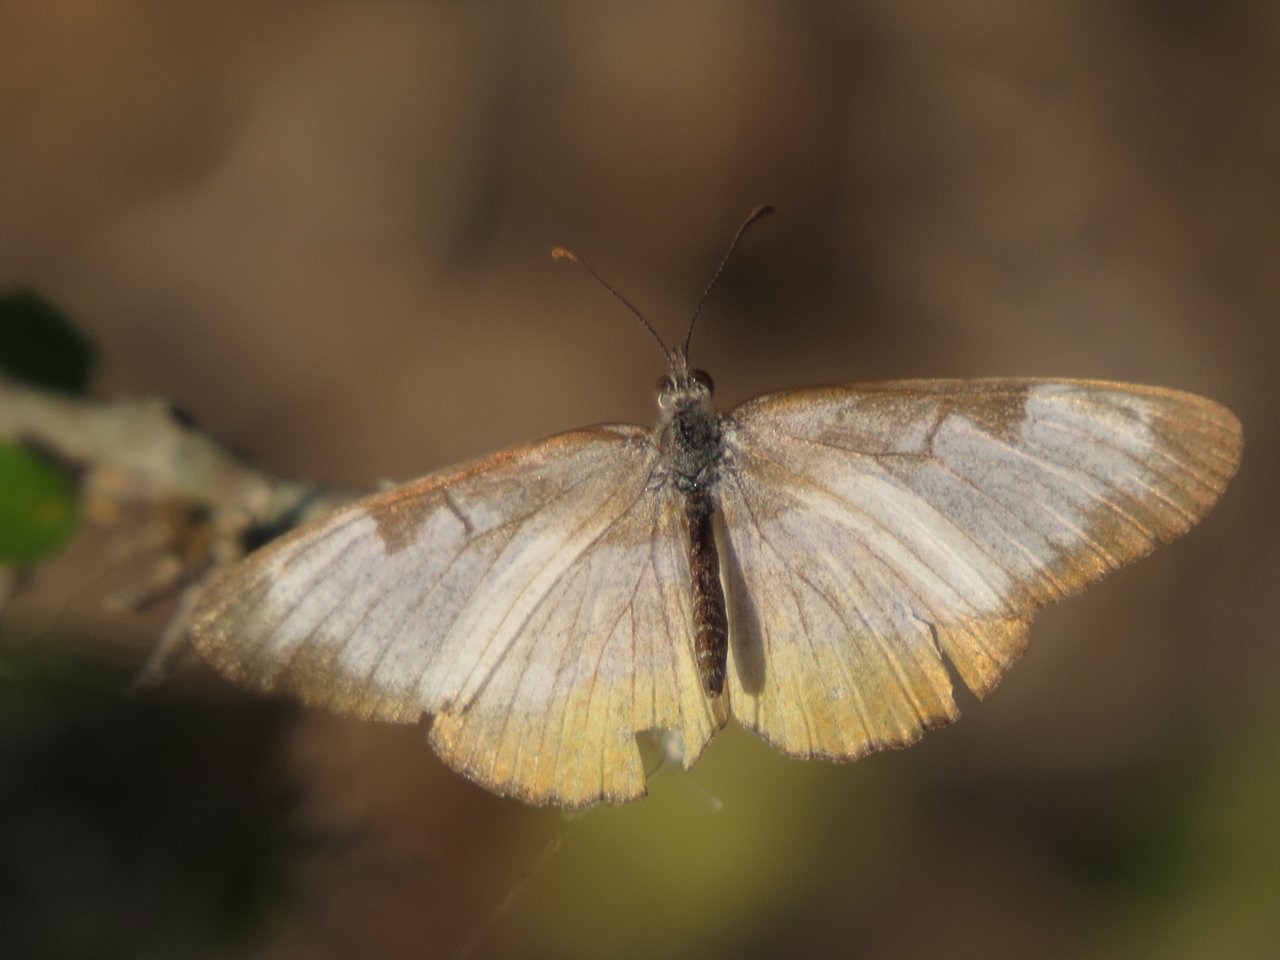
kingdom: Animalia
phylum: Arthropoda
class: Insecta
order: Lepidoptera
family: Nymphalidae
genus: Mestra
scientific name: Mestra amymone
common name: Common Mestra
